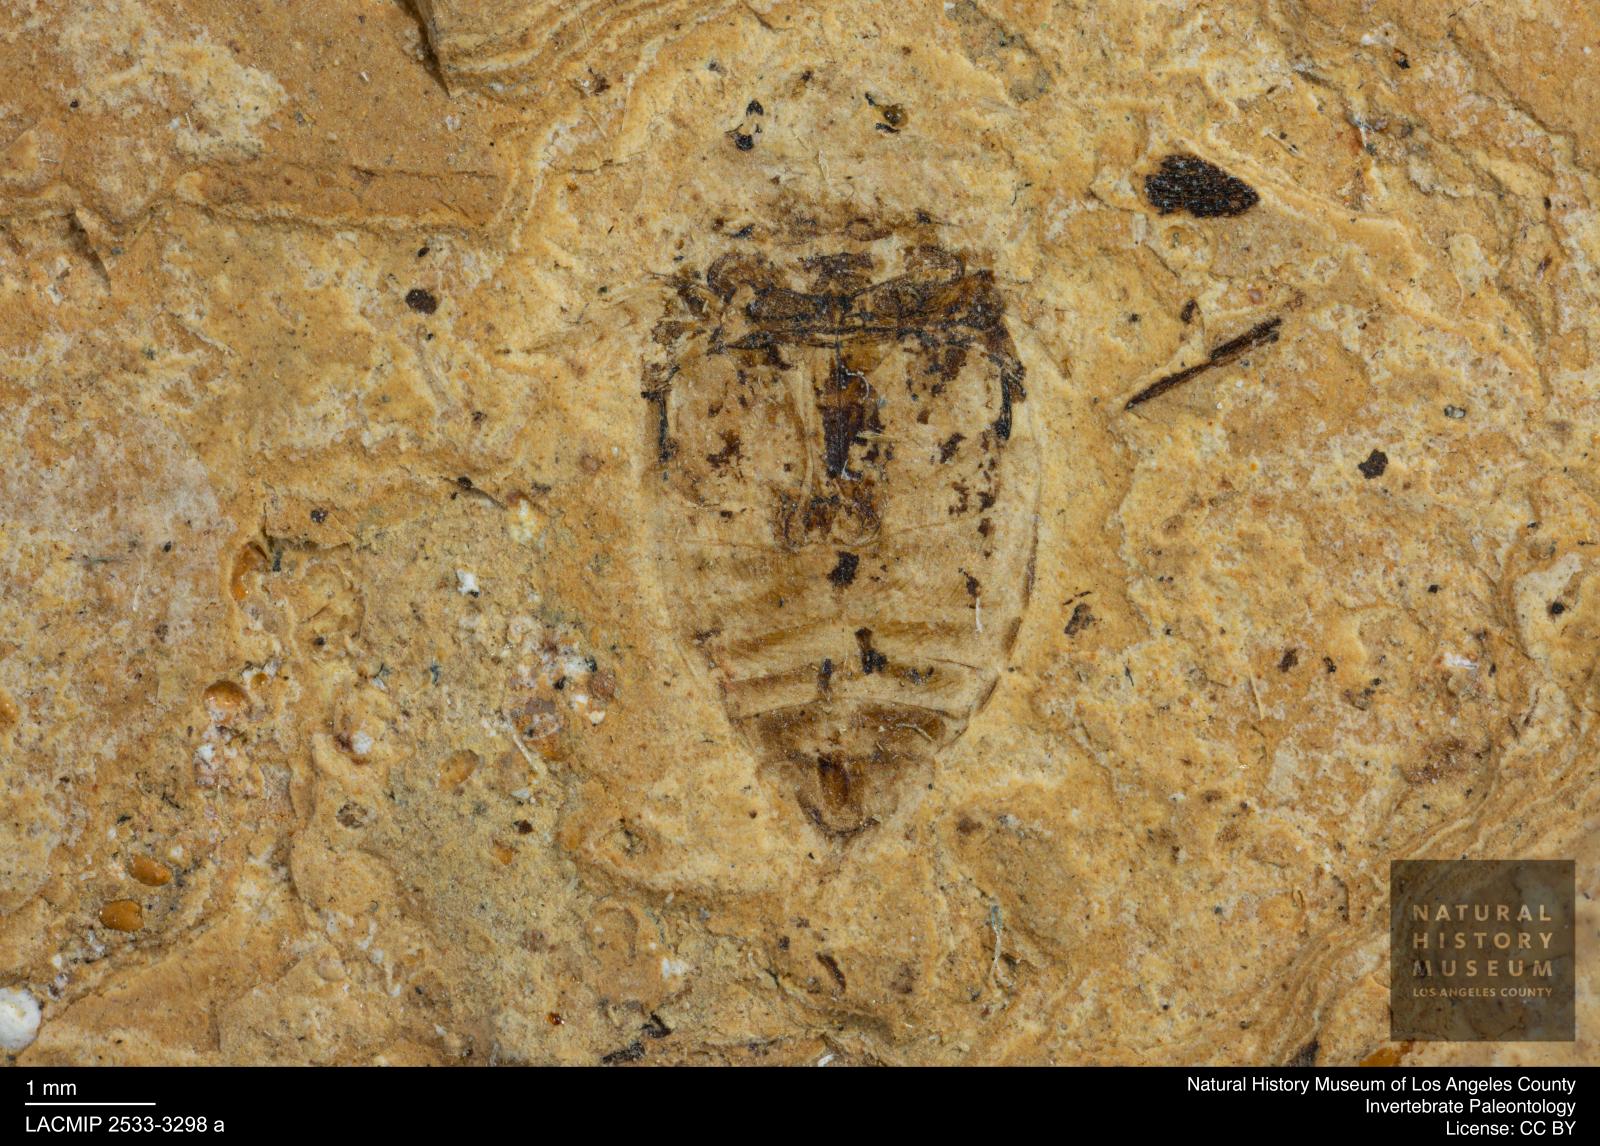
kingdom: Animalia
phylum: Arthropoda
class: Insecta
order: Coleoptera
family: Dytiscidae
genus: Laccophilus
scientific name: Laccophilus Palaeogyrinus strigatus
